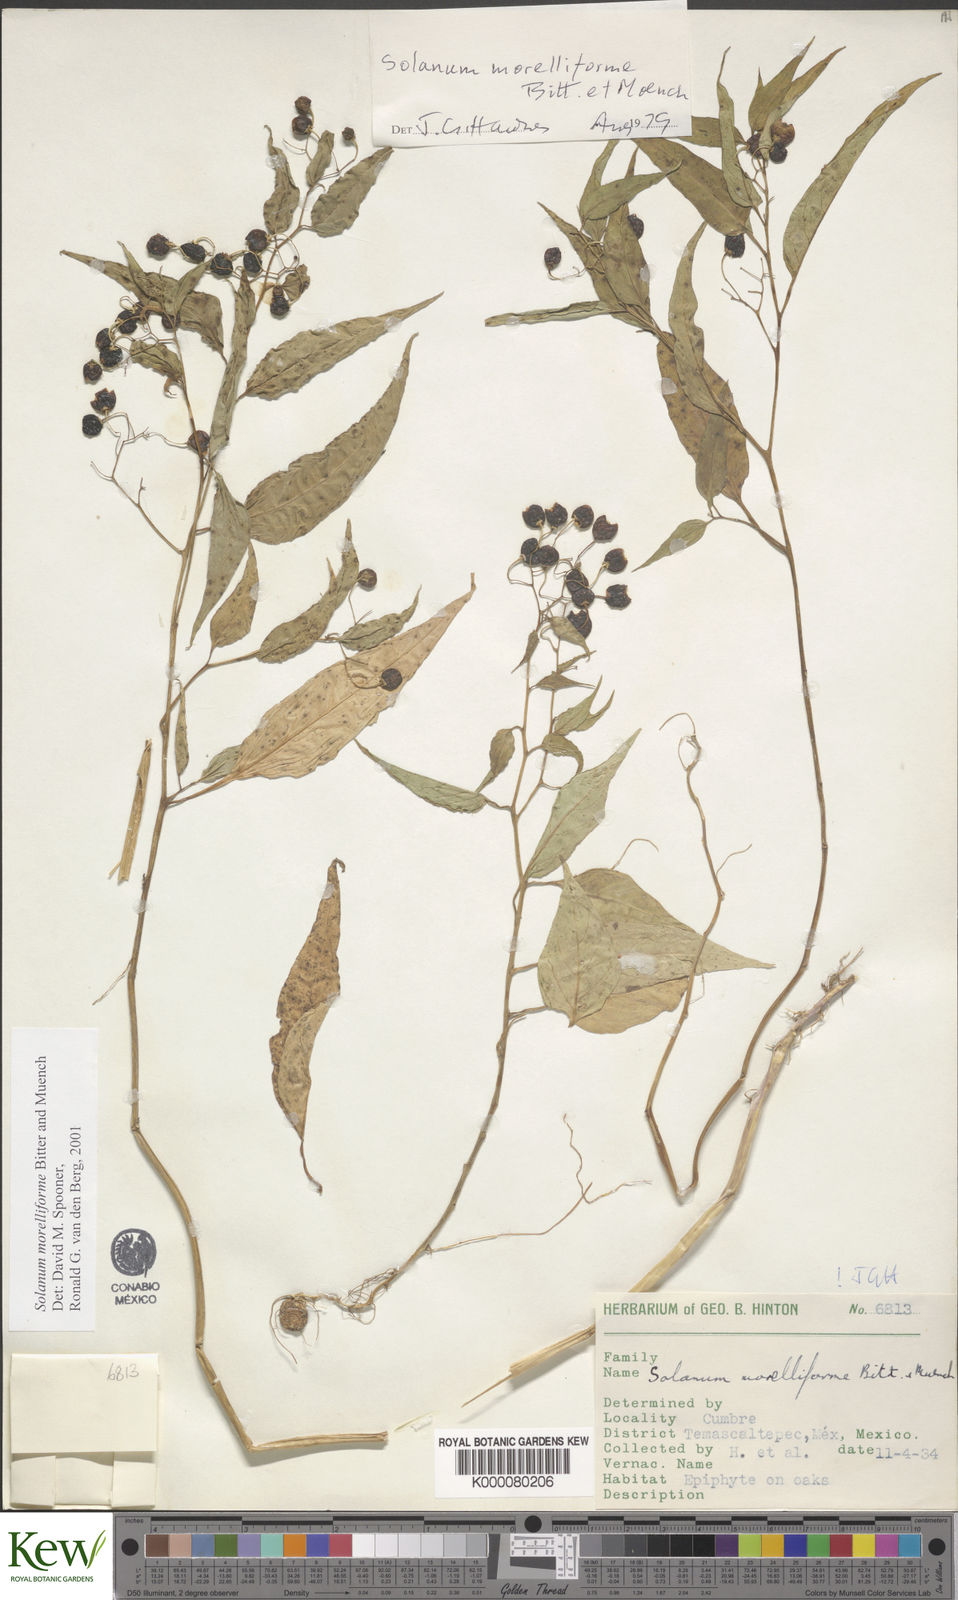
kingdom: Plantae
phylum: Tracheophyta
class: Magnoliopsida
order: Solanales
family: Solanaceae
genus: Solanum
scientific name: Solanum morelliforme
